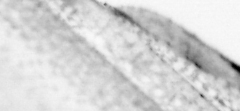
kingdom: Animalia
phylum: Chordata
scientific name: Chordata
